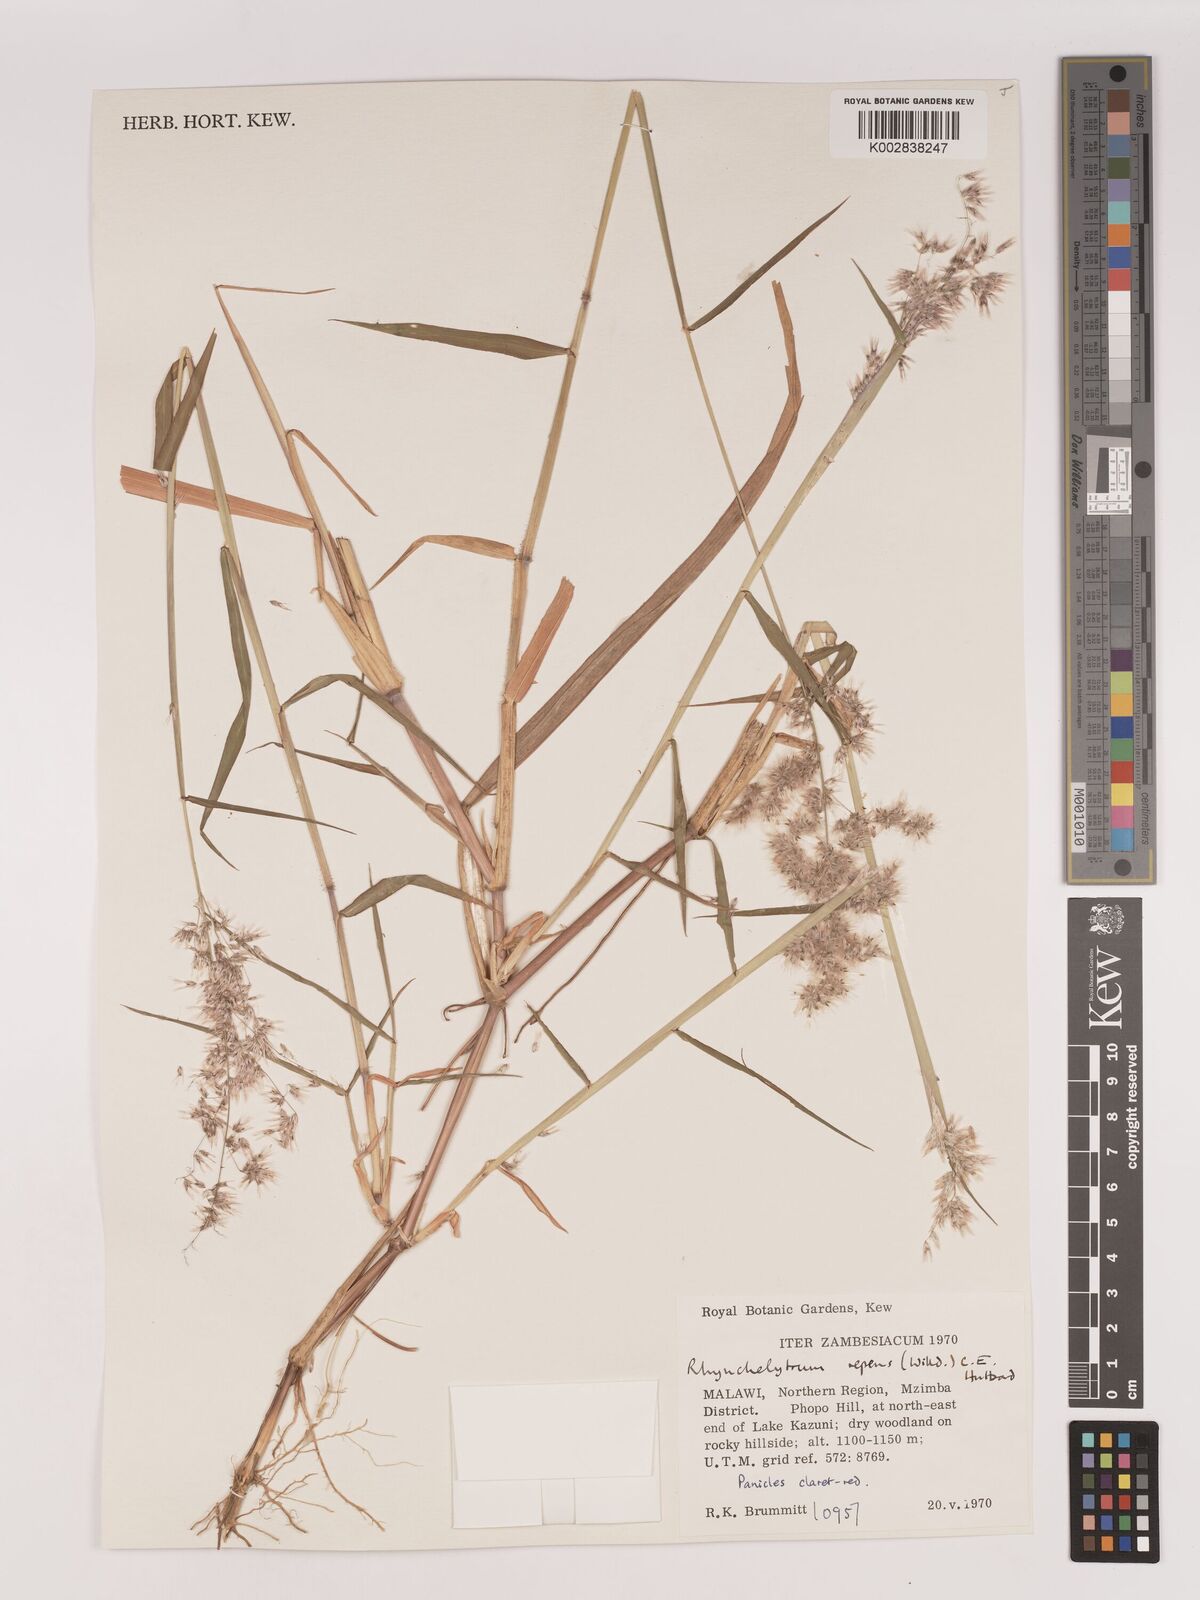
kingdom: Plantae
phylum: Tracheophyta
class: Liliopsida
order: Poales
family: Poaceae
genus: Melinis
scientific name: Melinis repens
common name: Rose natal grass
